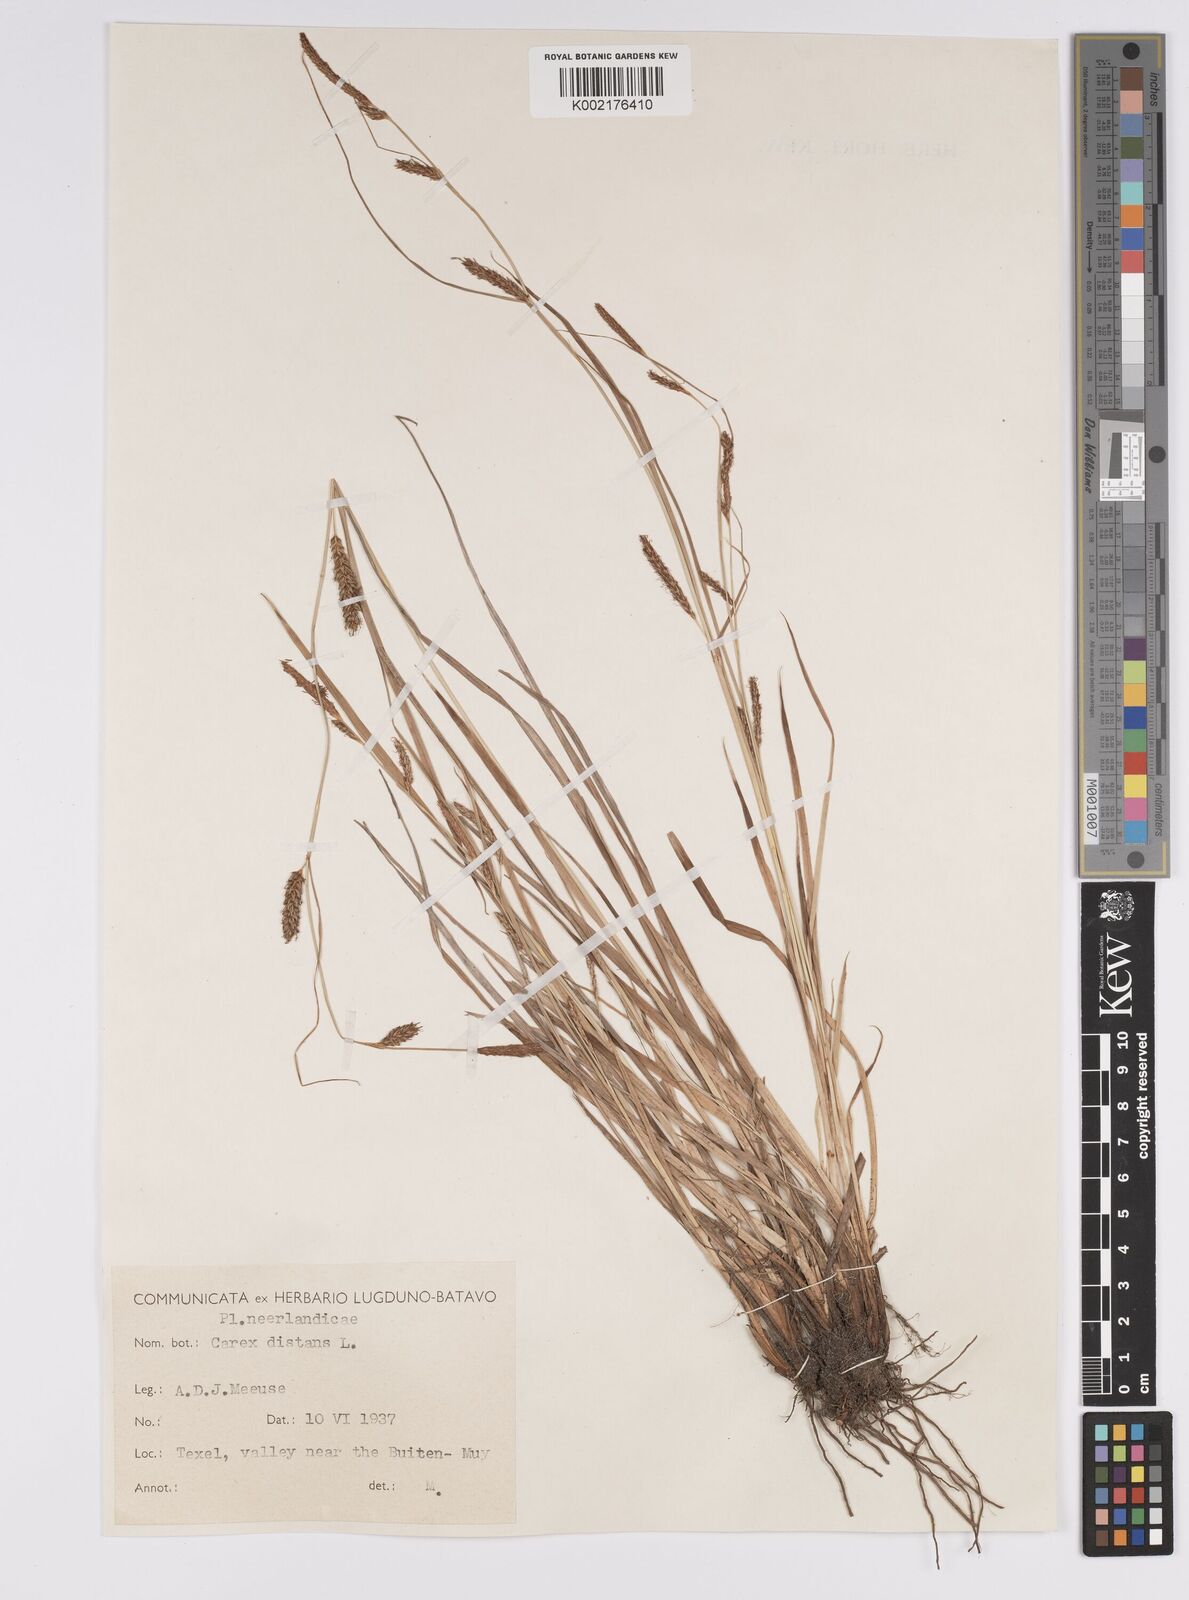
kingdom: Plantae
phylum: Tracheophyta
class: Liliopsida
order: Poales
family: Cyperaceae
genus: Carex
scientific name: Carex distans
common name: Distant sedge
